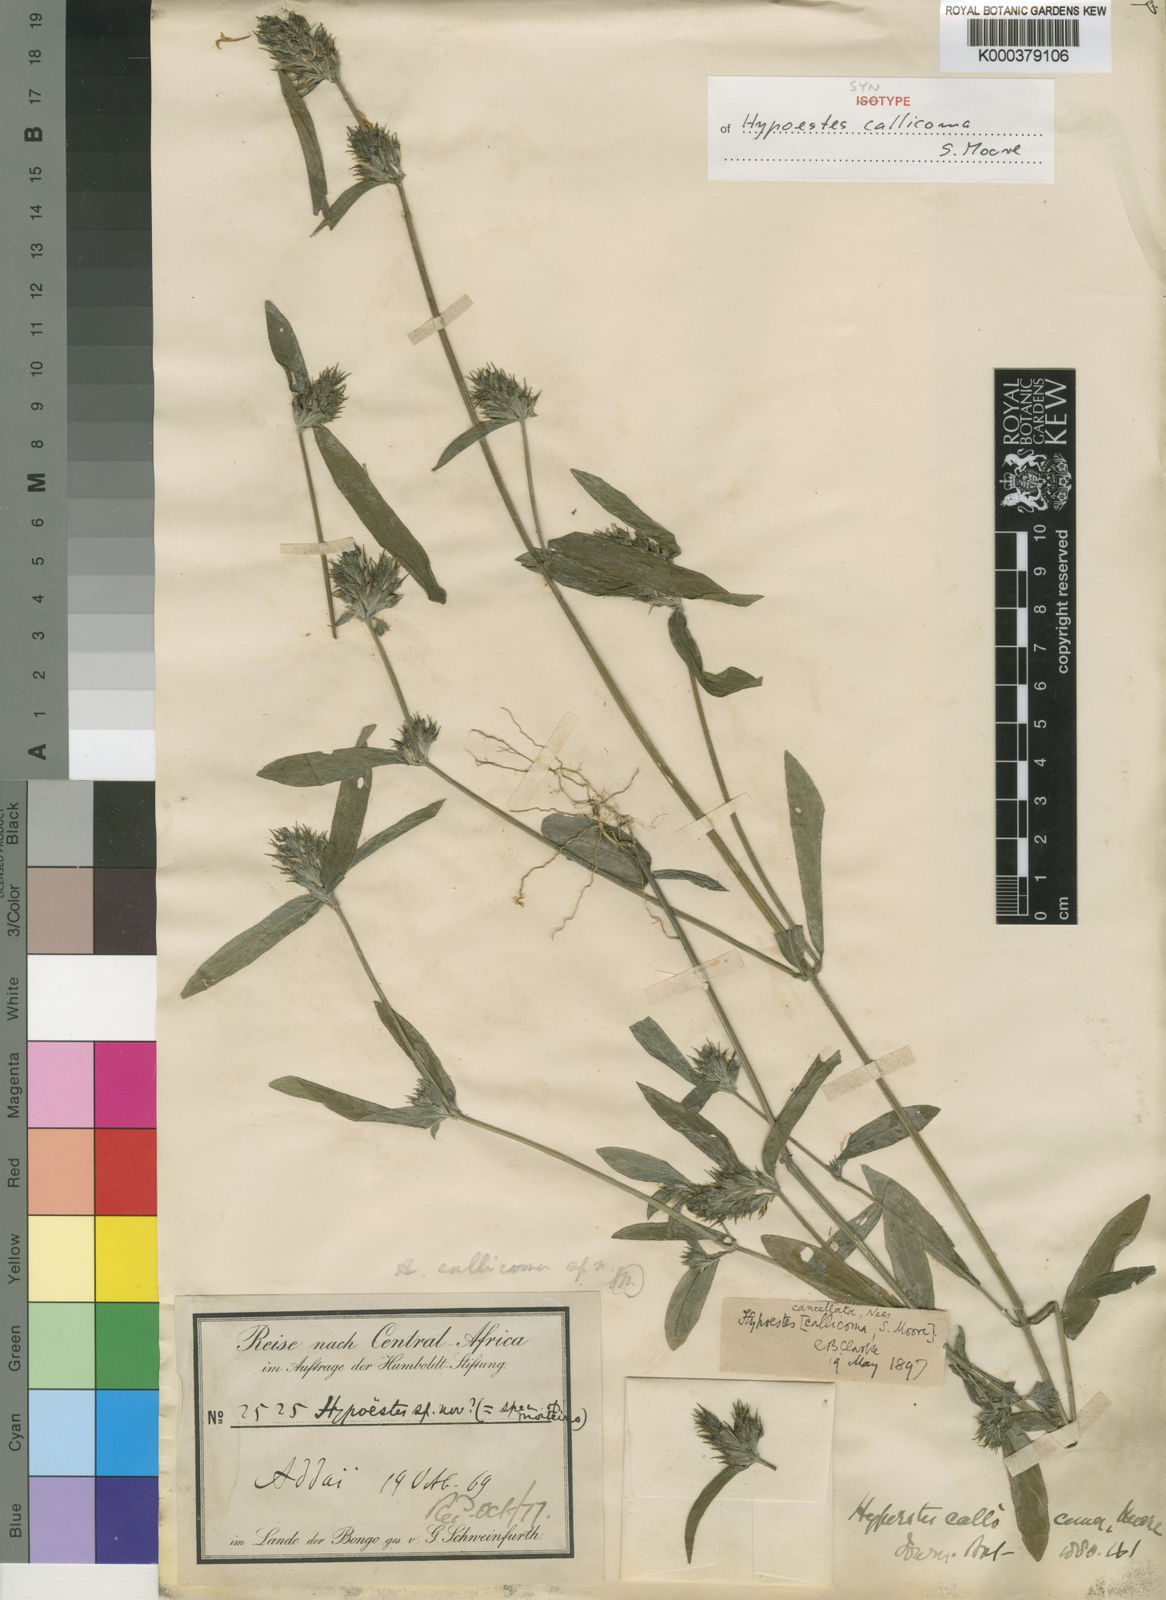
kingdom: Plantae
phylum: Tracheophyta
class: Magnoliopsida
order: Lamiales
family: Acanthaceae
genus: Hypoestes
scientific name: Hypoestes cancellata
